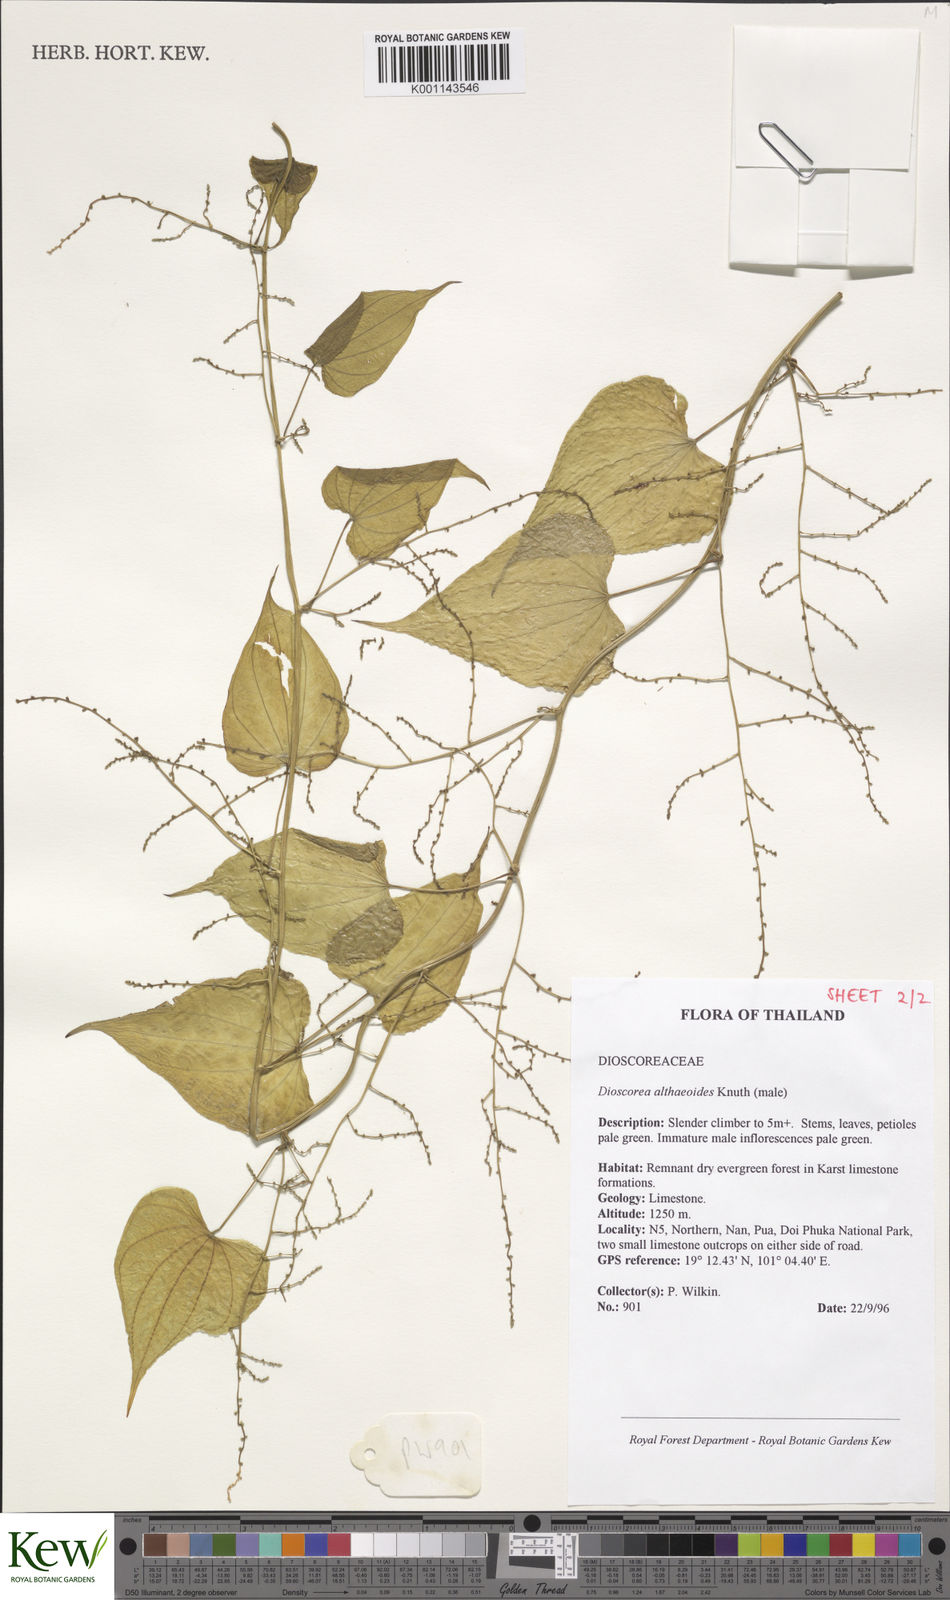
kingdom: Plantae
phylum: Tracheophyta
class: Liliopsida
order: Dioscoreales
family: Dioscoreaceae
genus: Dioscorea
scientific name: Dioscorea rockii
